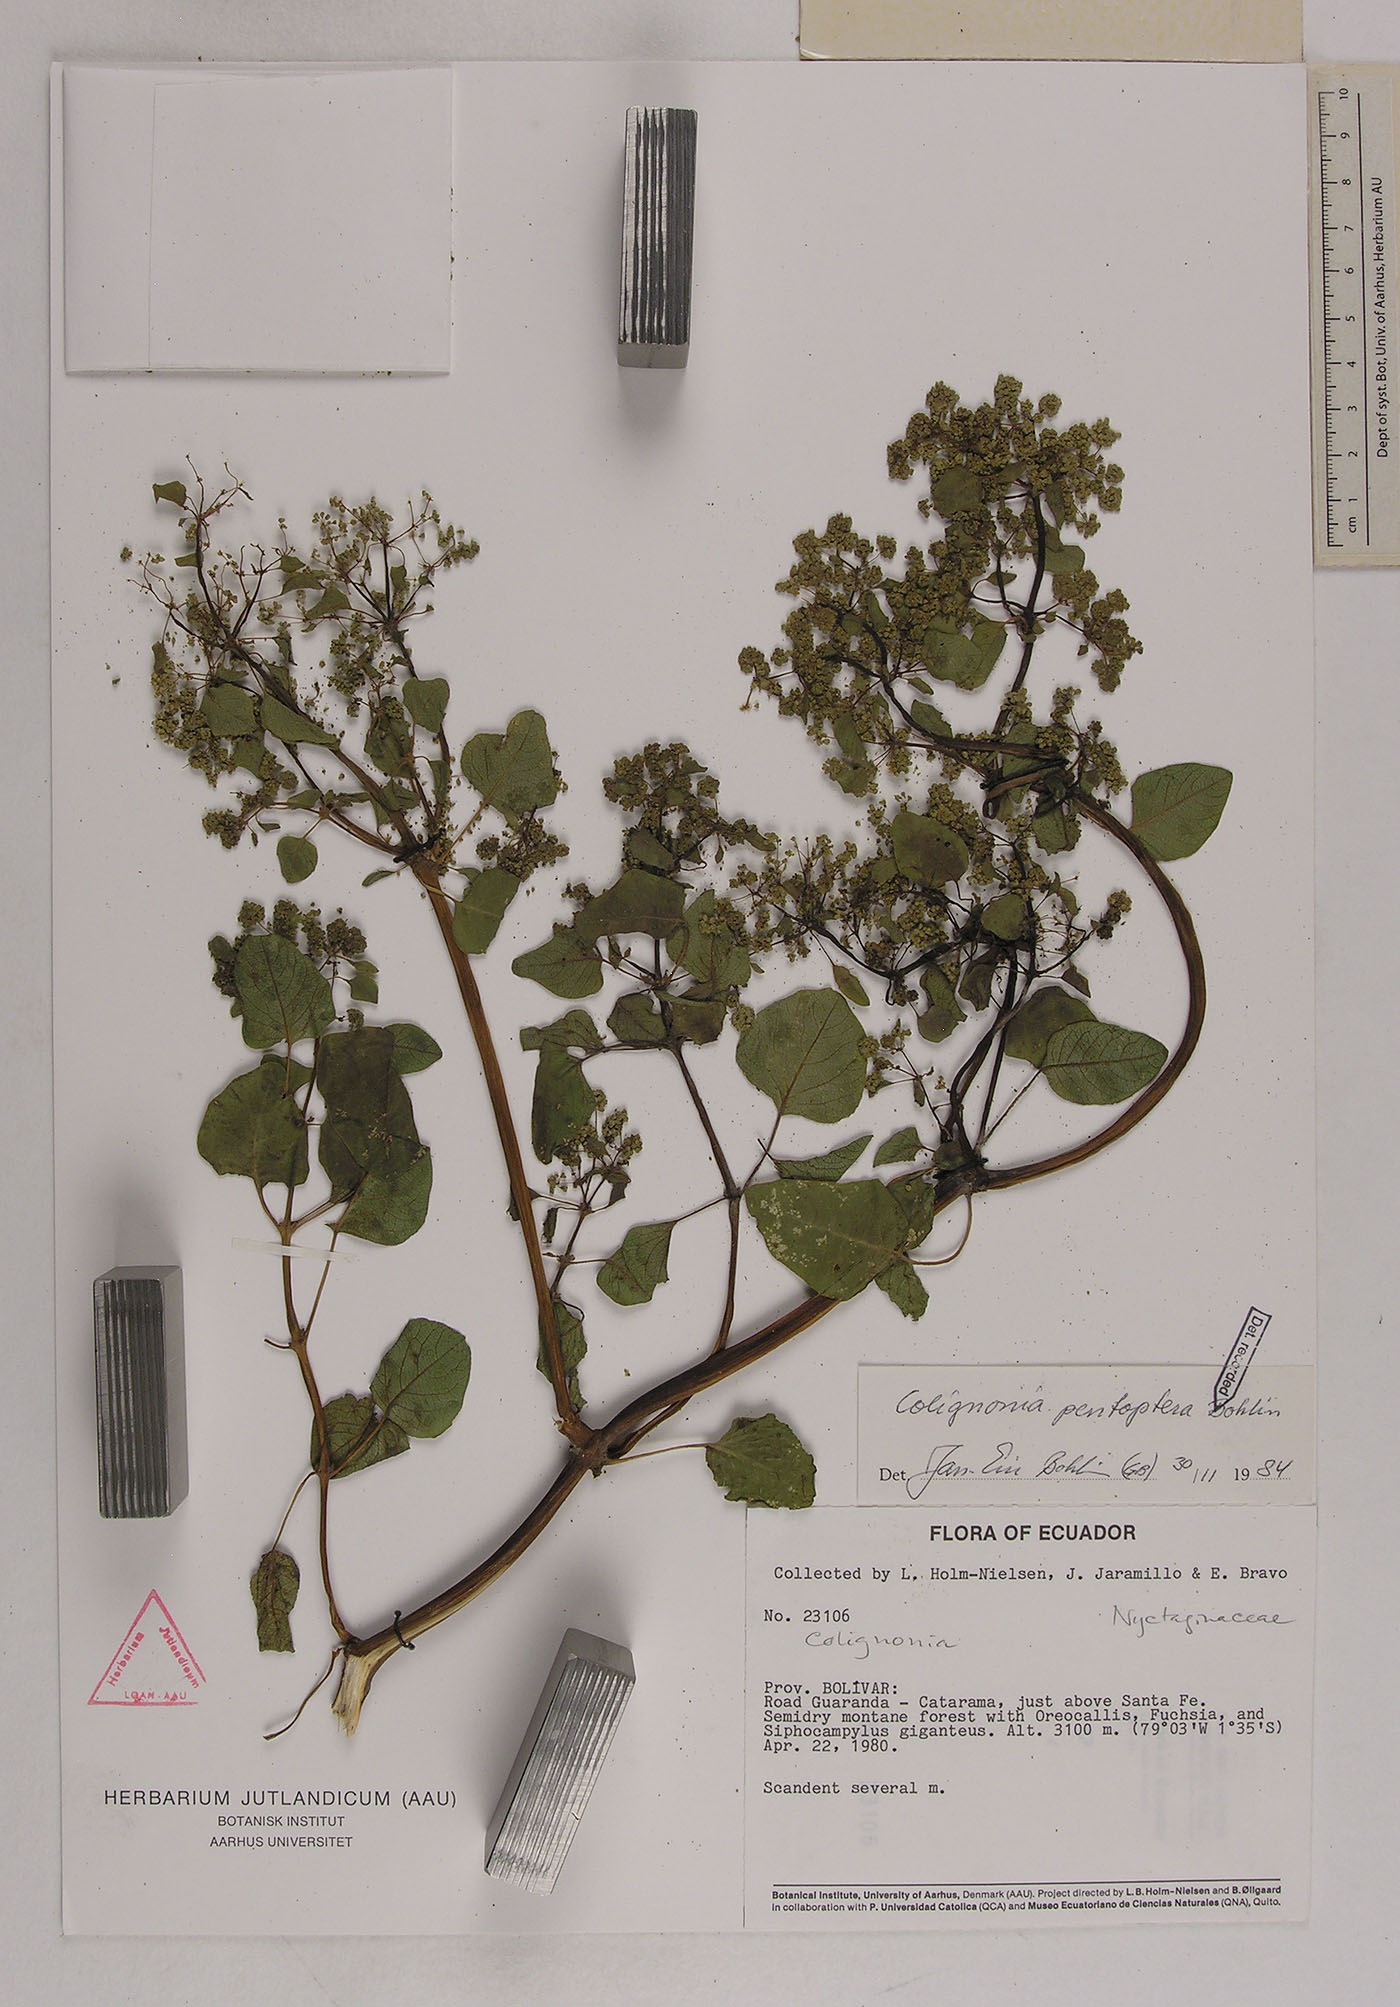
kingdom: Plantae
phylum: Tracheophyta
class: Magnoliopsida
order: Caryophyllales
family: Nyctaginaceae
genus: Colignonia
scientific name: Colignonia pentoptera
